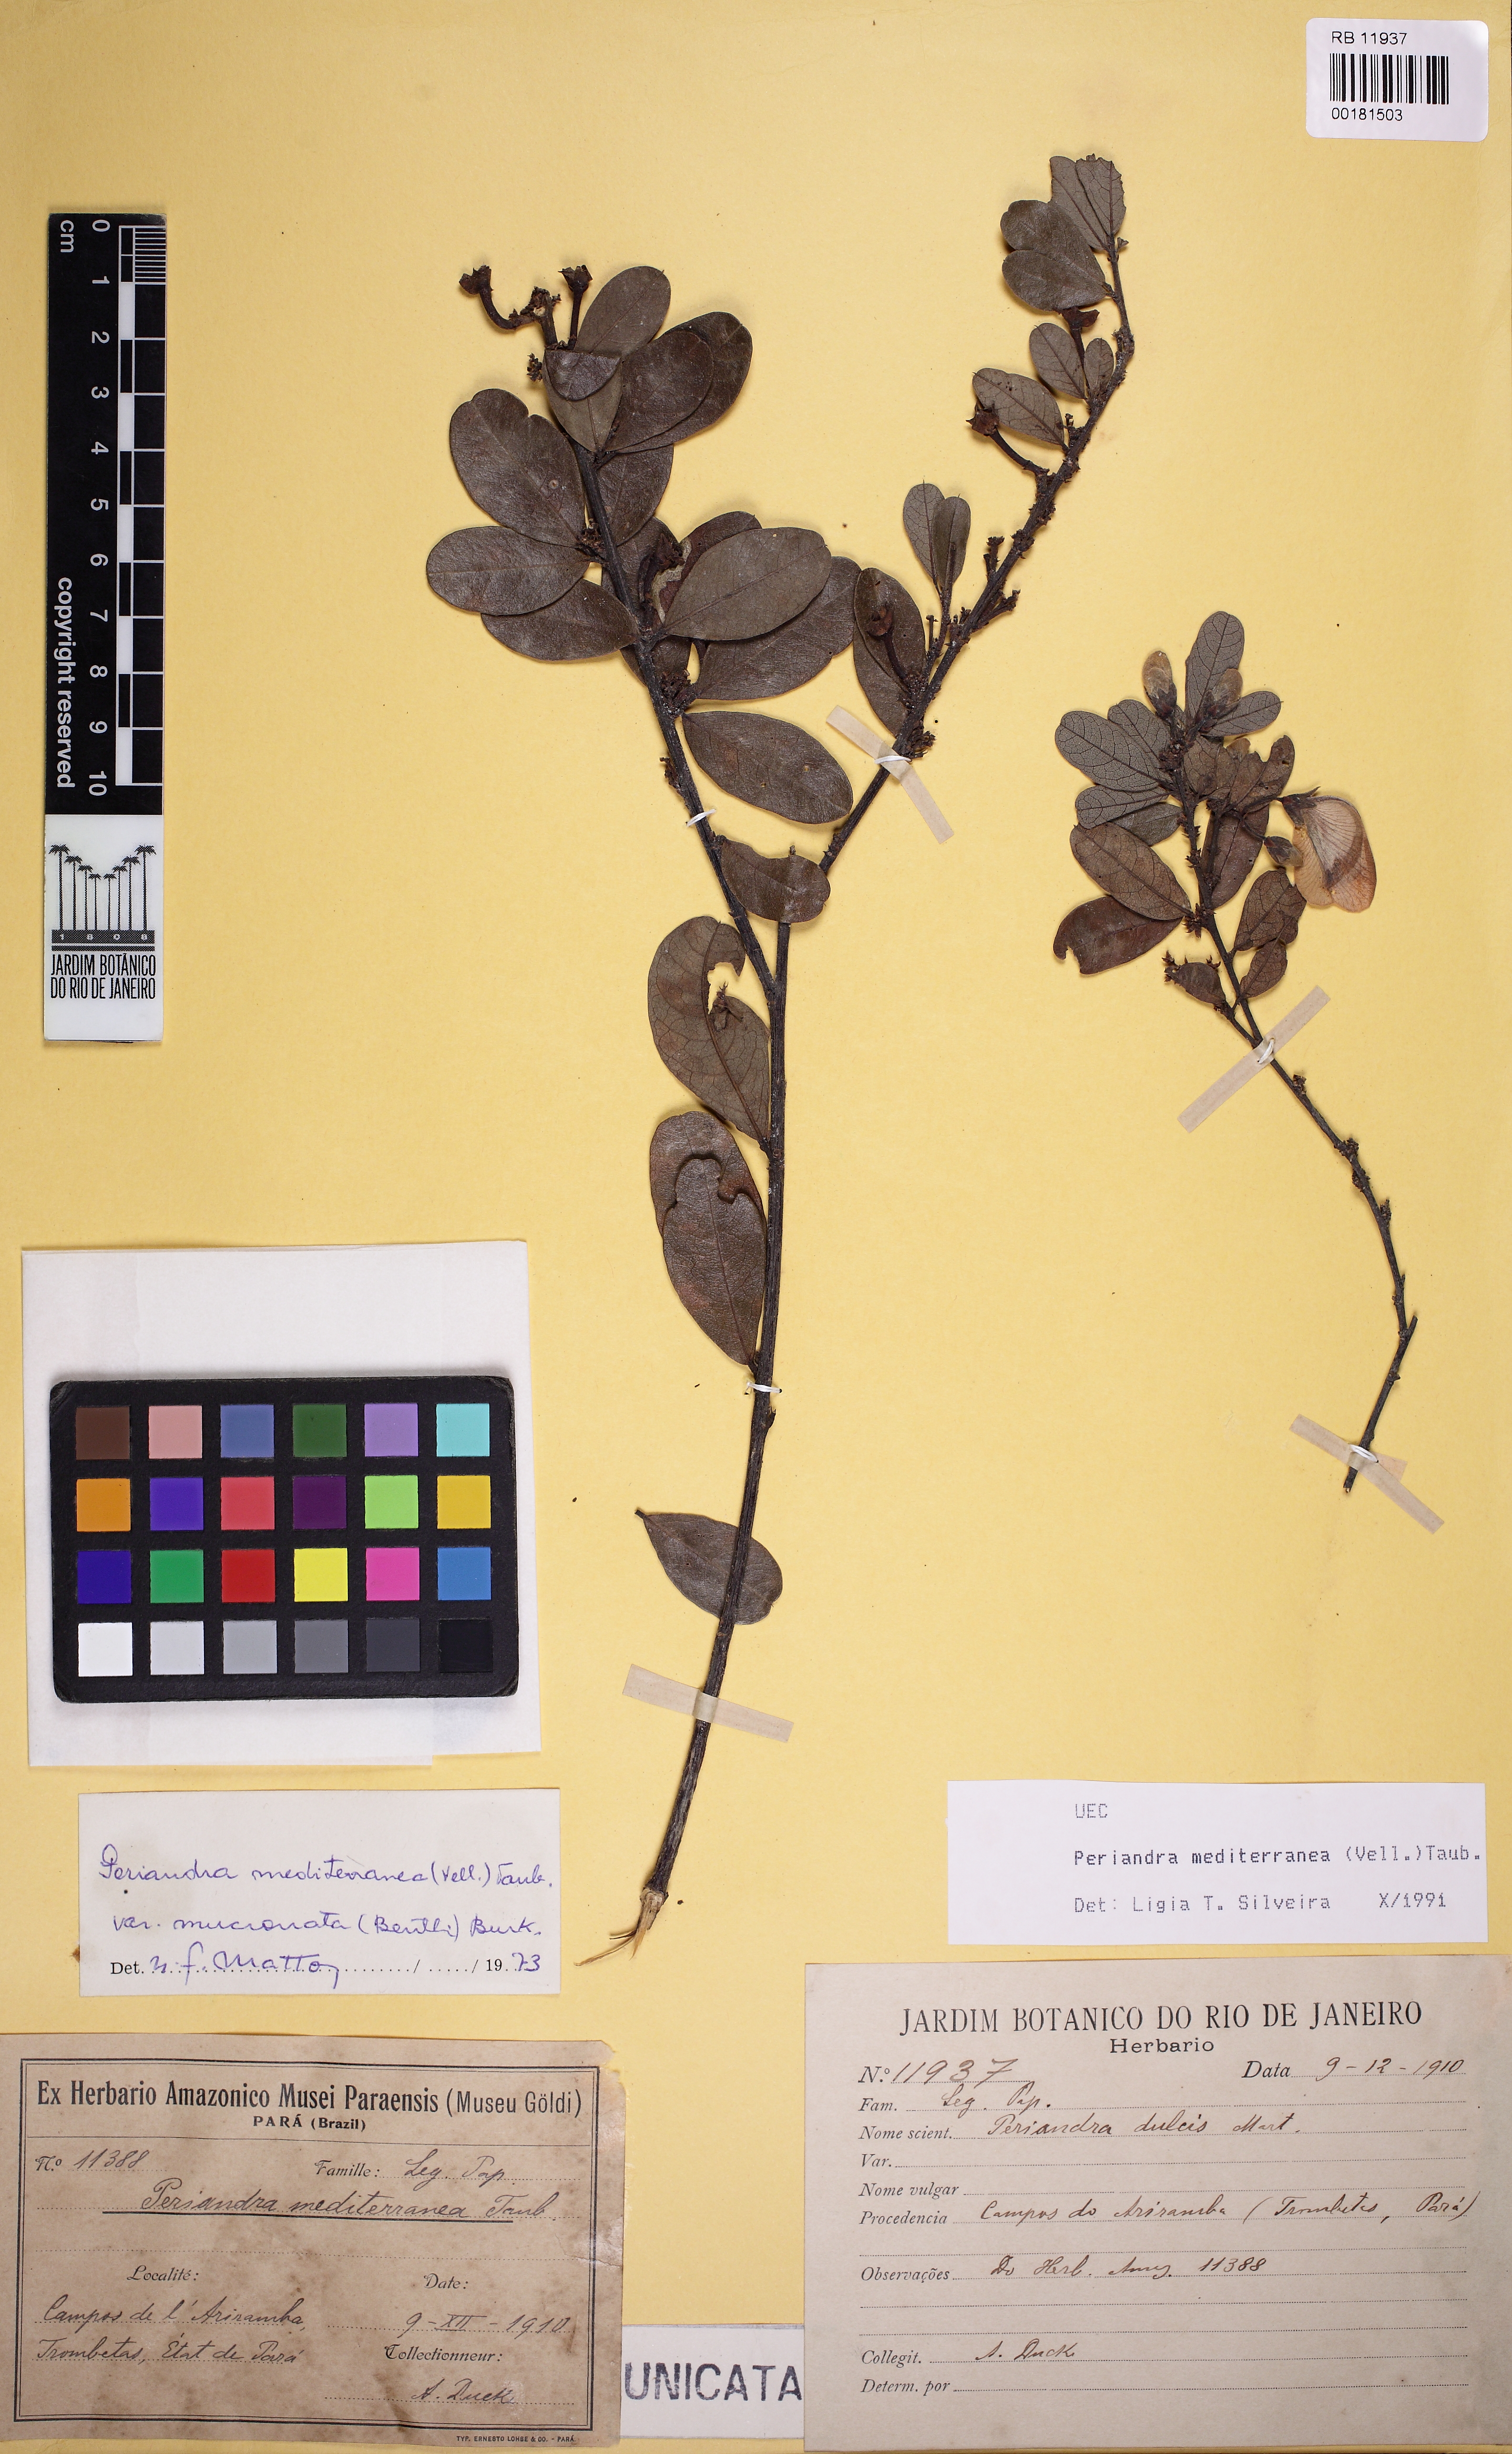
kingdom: Plantae
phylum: Tracheophyta
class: Magnoliopsida
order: Fabales
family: Fabaceae
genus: Periandra
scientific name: Periandra mediterranea
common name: Brazilian licorice
